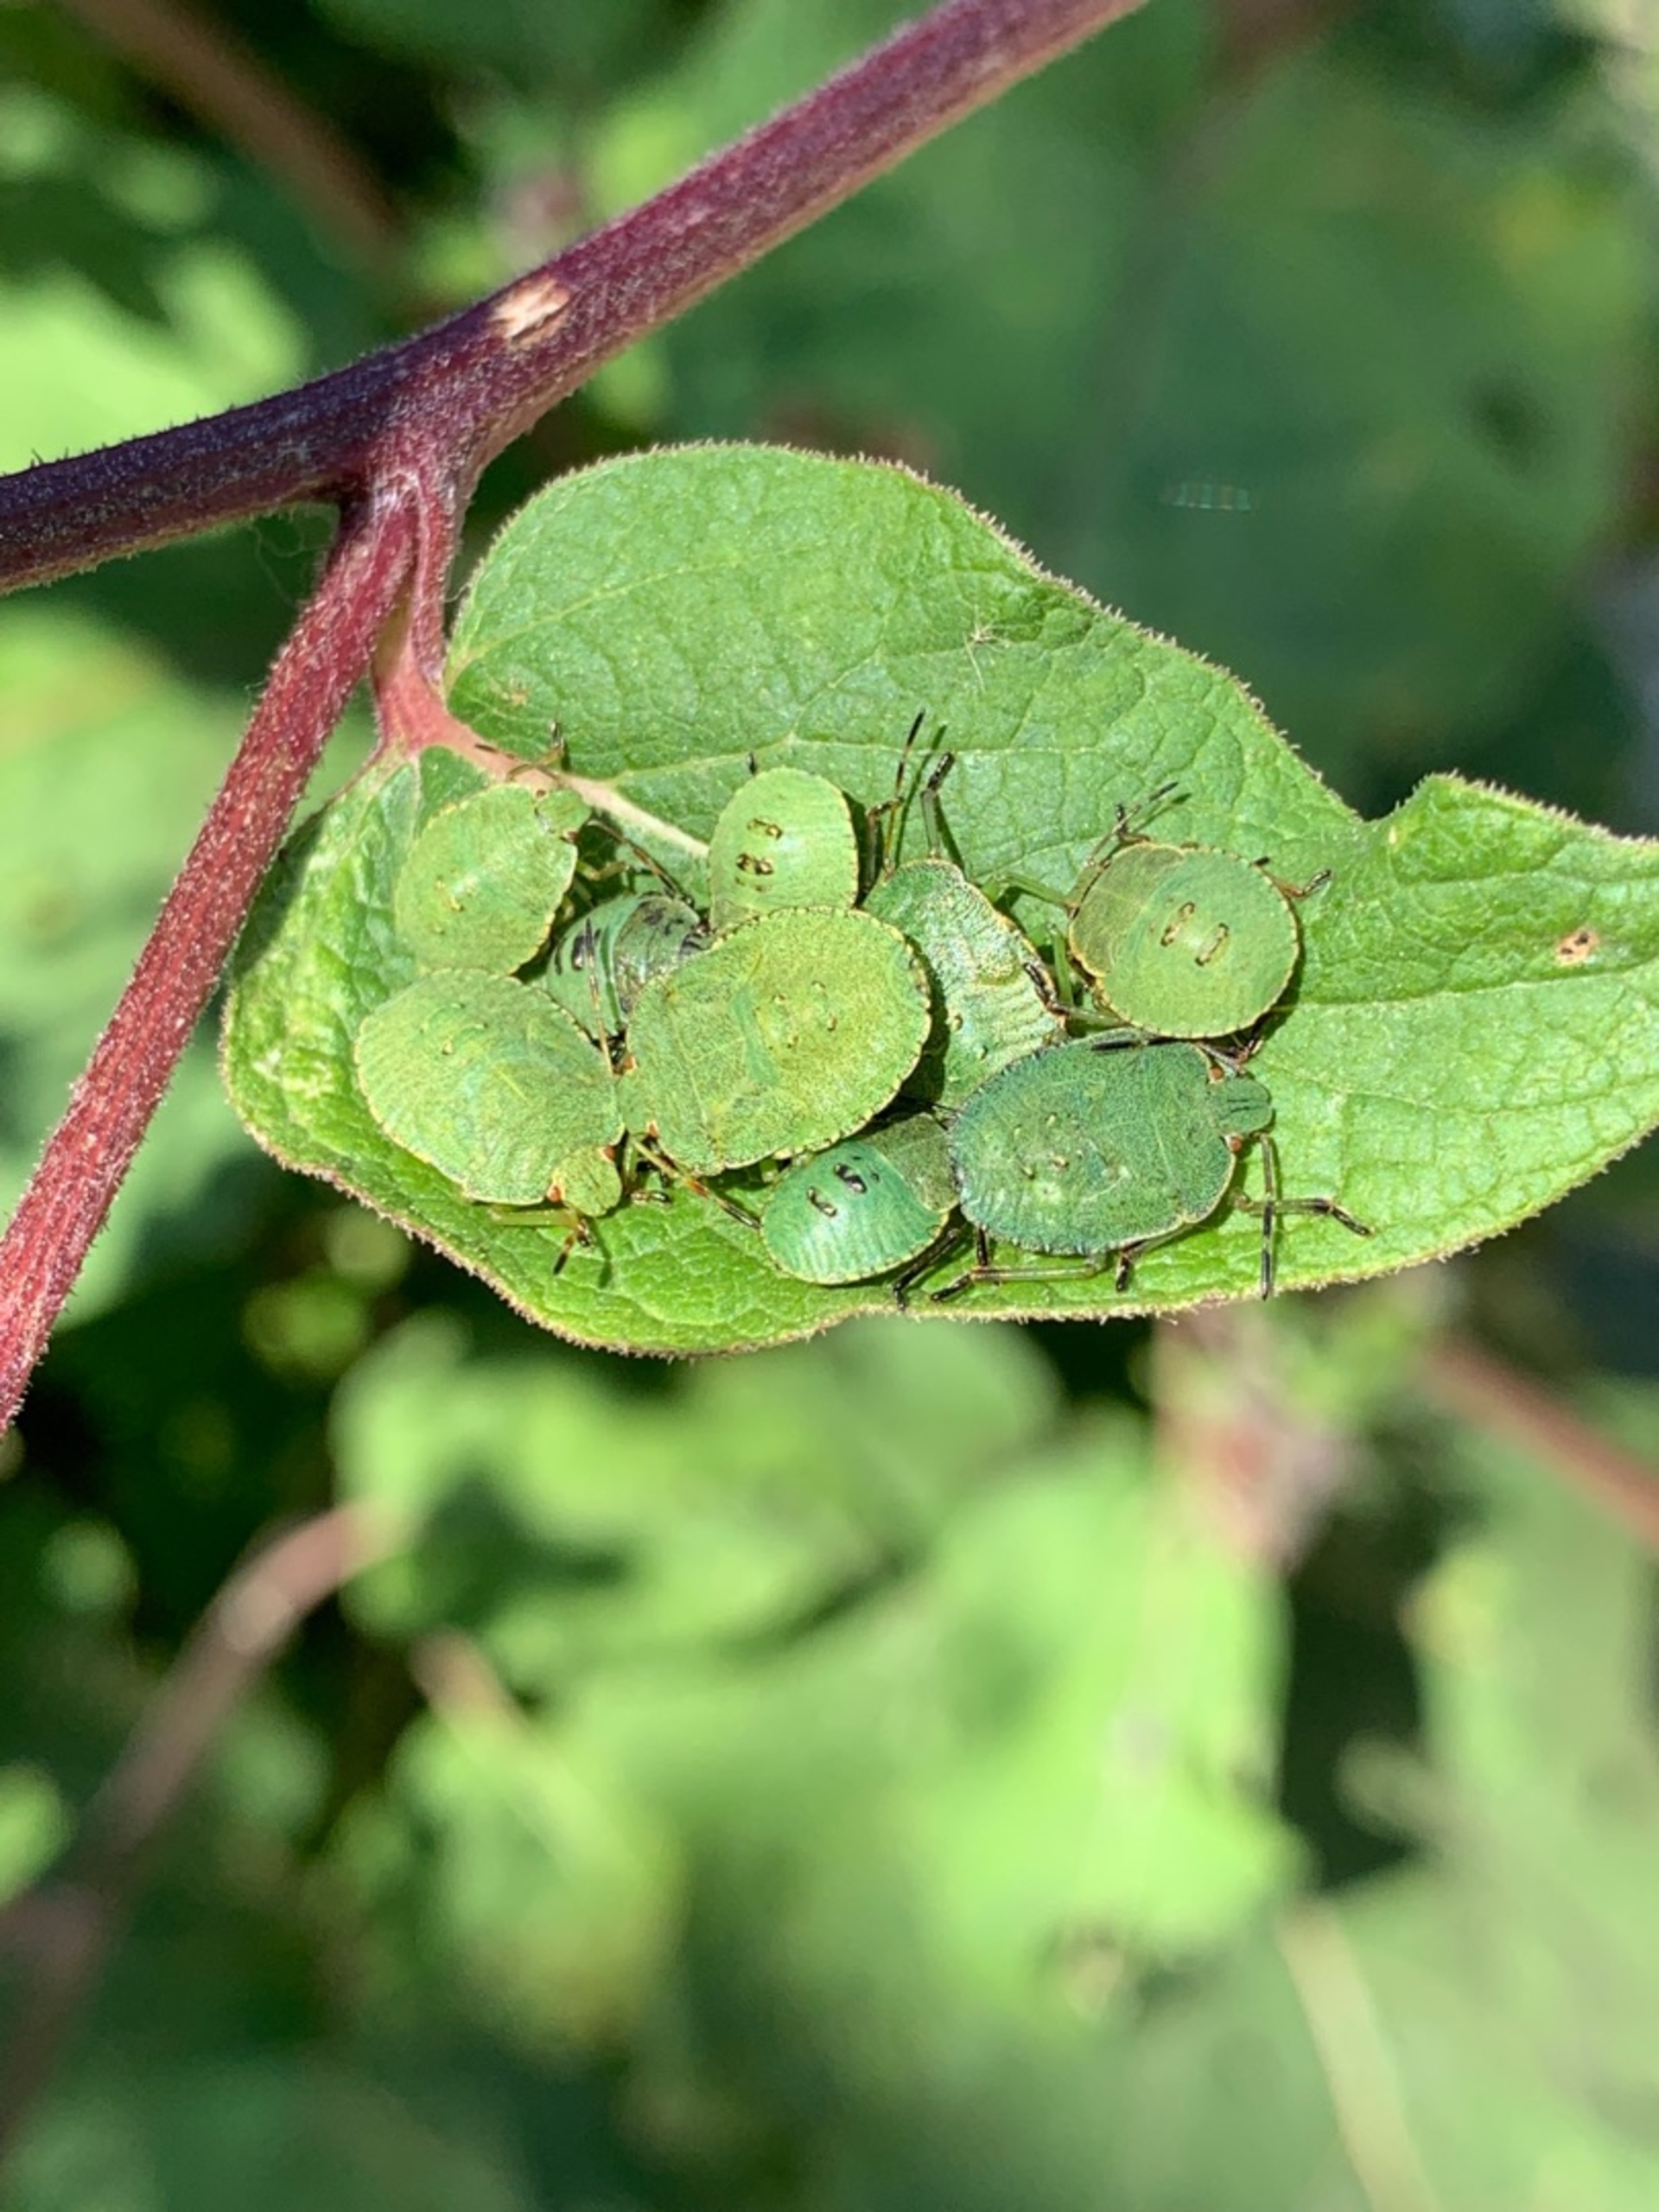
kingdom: Animalia
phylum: Arthropoda
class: Insecta
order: Hemiptera
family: Pentatomidae
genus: Palomena
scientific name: Palomena prasina
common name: Grøn bredtæge
